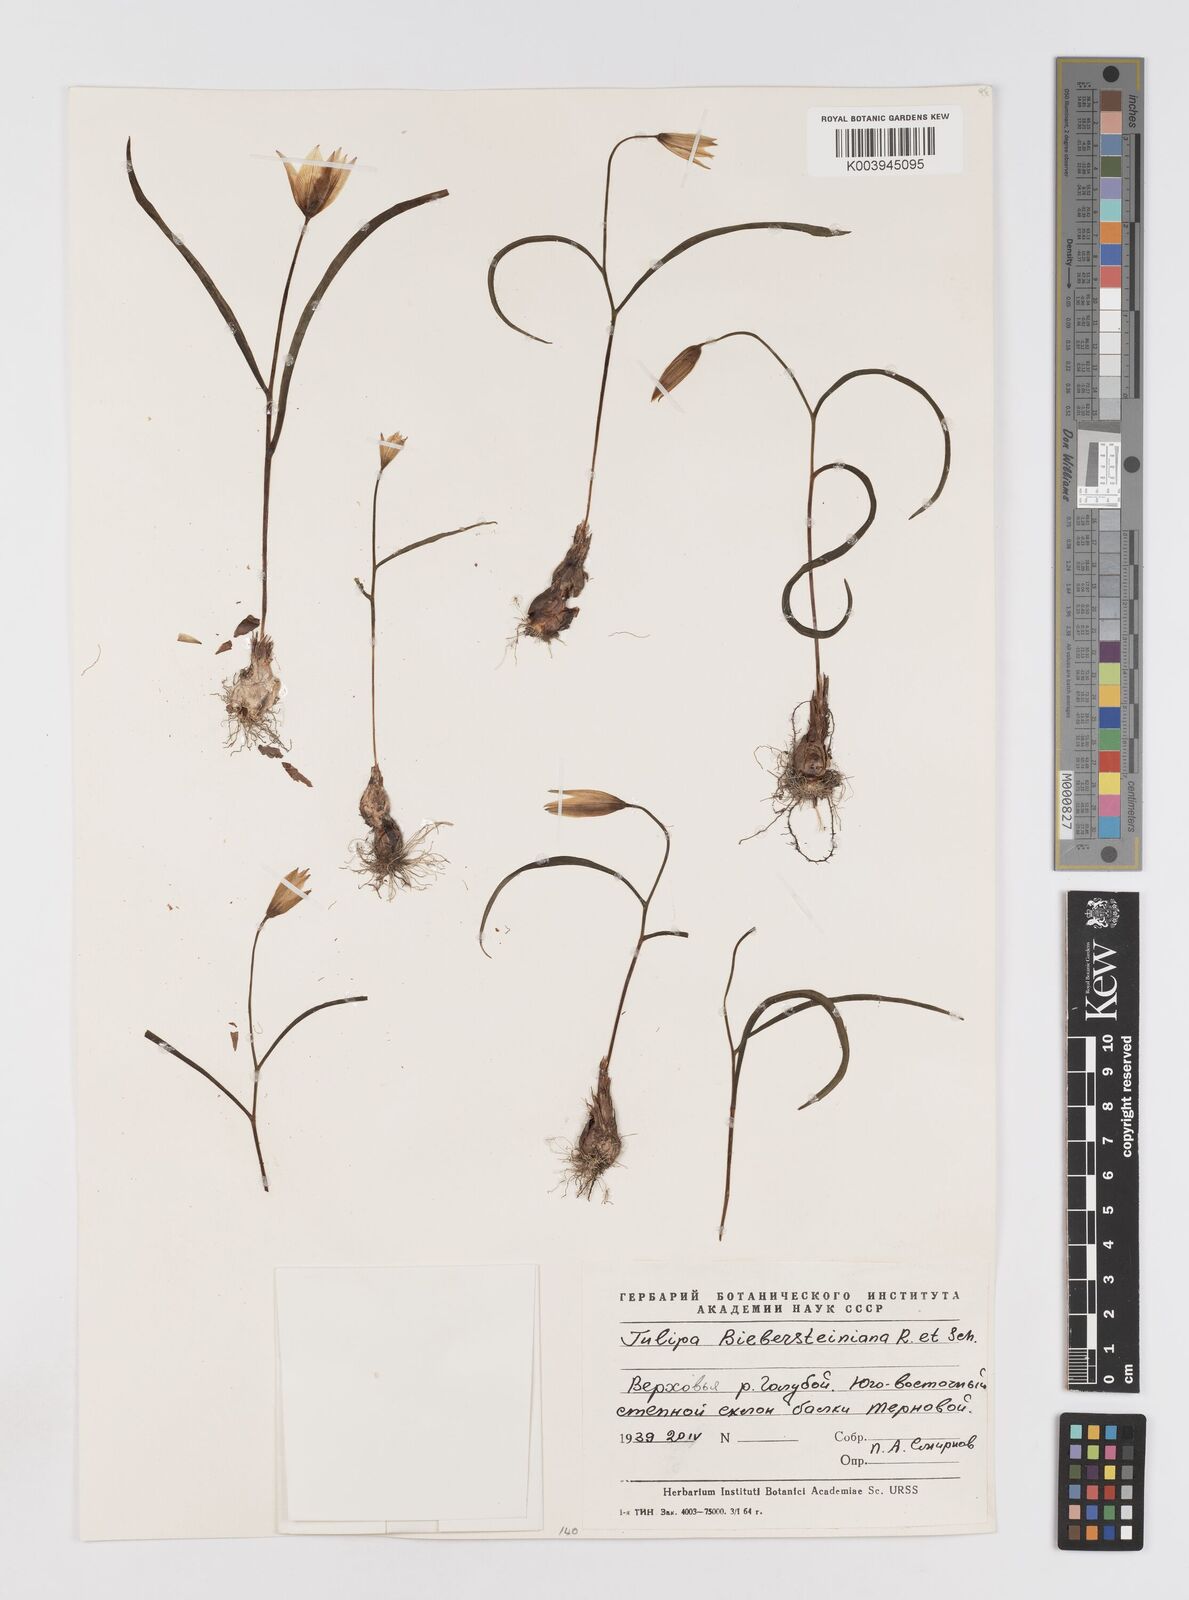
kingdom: Plantae
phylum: Tracheophyta
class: Liliopsida
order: Liliales
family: Liliaceae
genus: Tulipa
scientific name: Tulipa sylvestris
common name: Wild tulip
